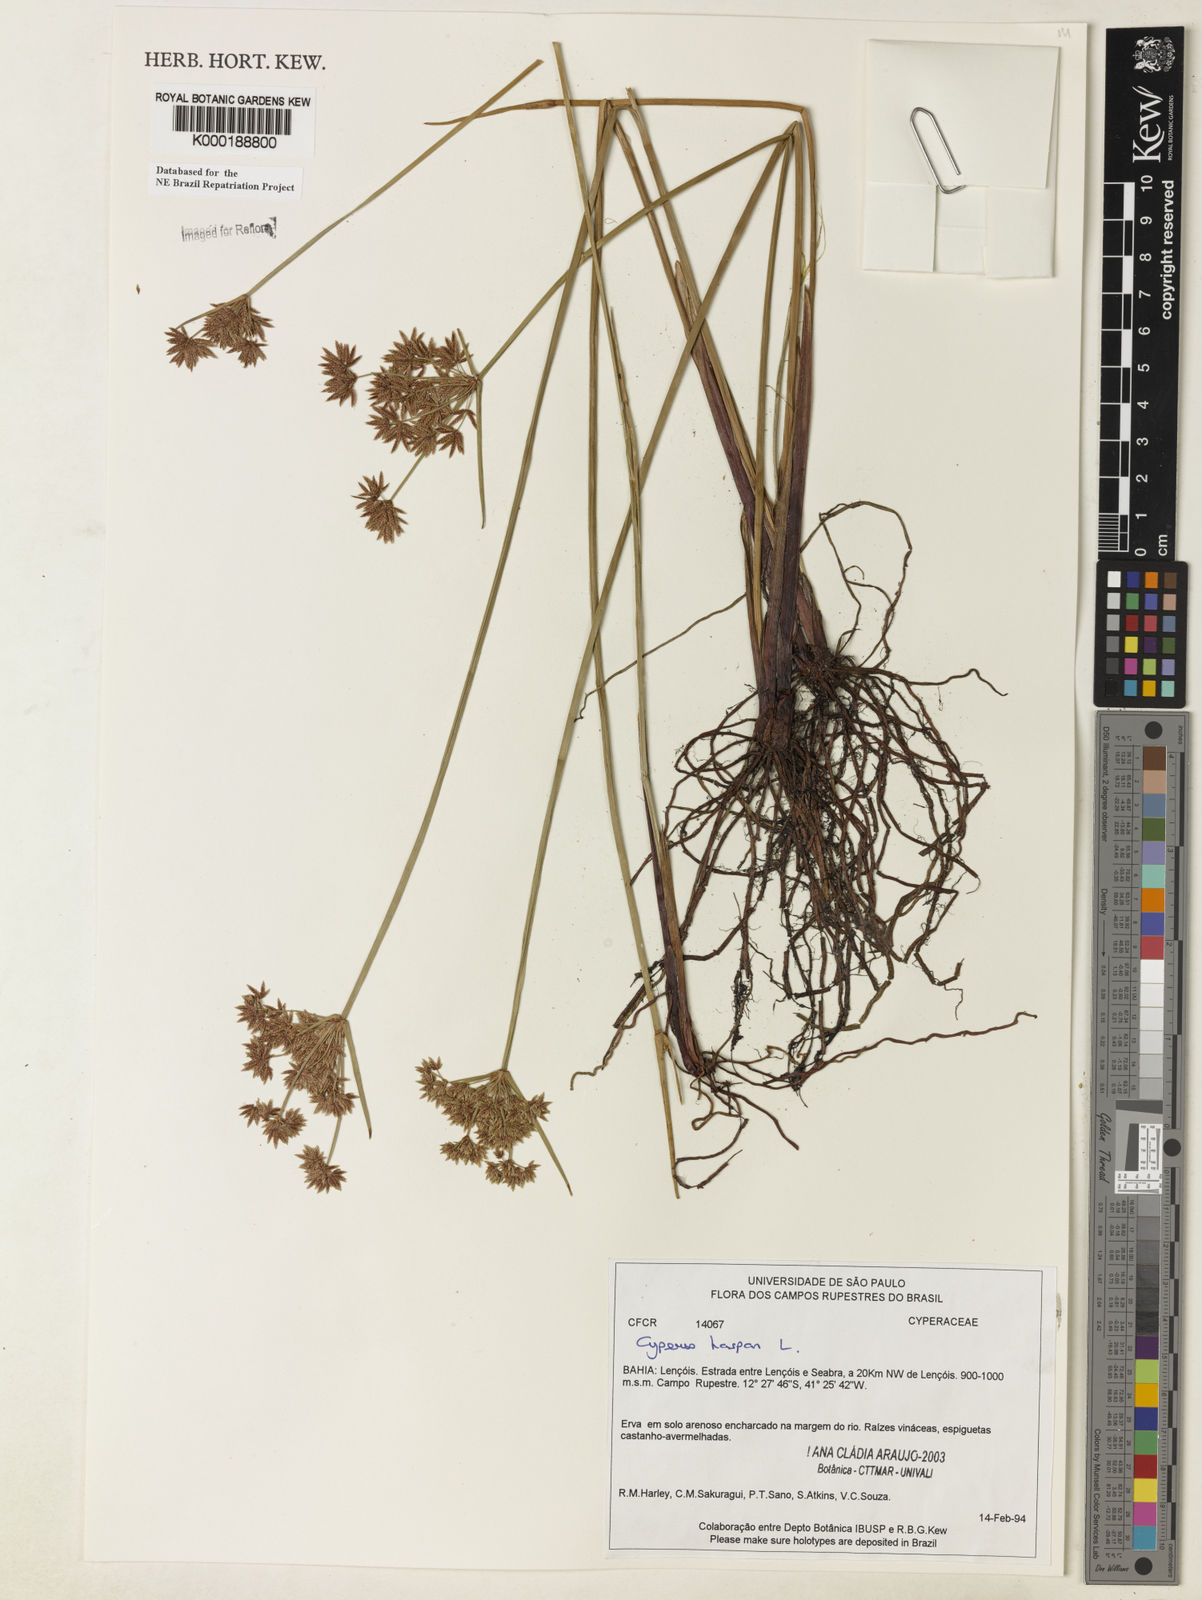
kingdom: Plantae
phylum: Tracheophyta
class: Liliopsida
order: Poales
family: Cyperaceae
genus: Cyperus
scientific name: Cyperus haspan
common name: Haspan flatsedge
